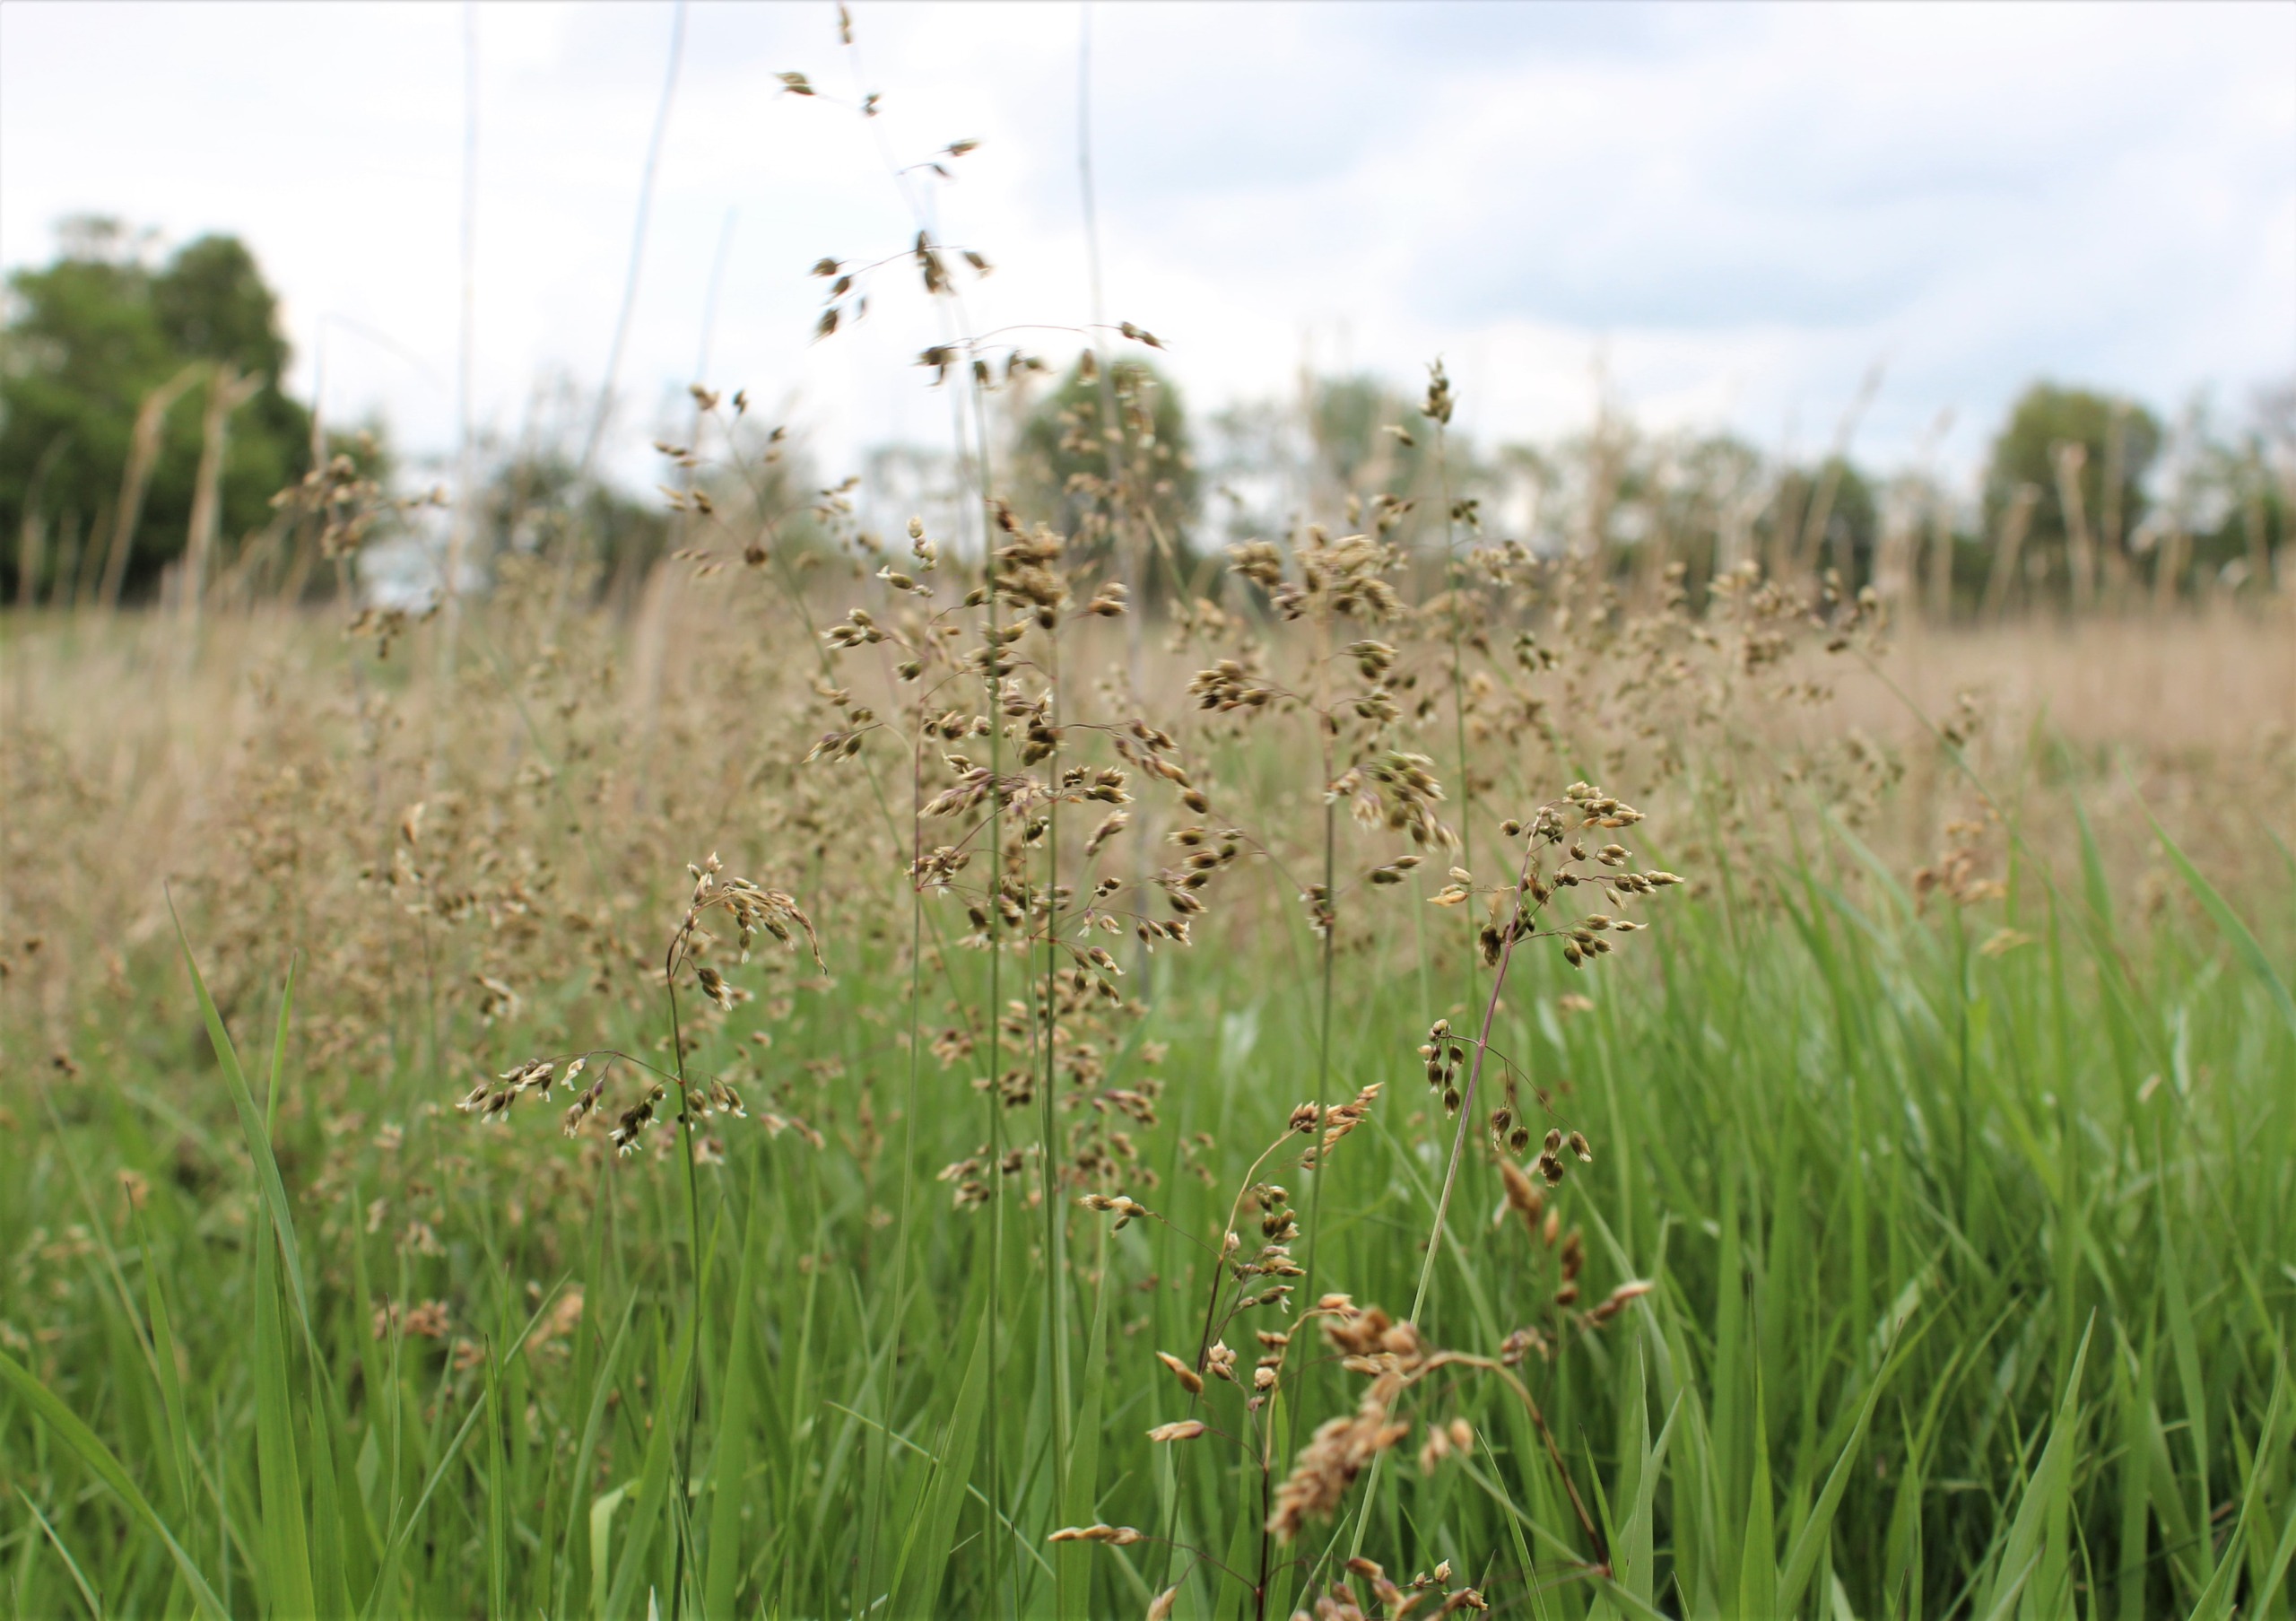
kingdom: Plantae
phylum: Tracheophyta
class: Liliopsida
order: Poales
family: Poaceae
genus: Anthoxanthum
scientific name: Anthoxanthum nitens
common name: Festgræs
